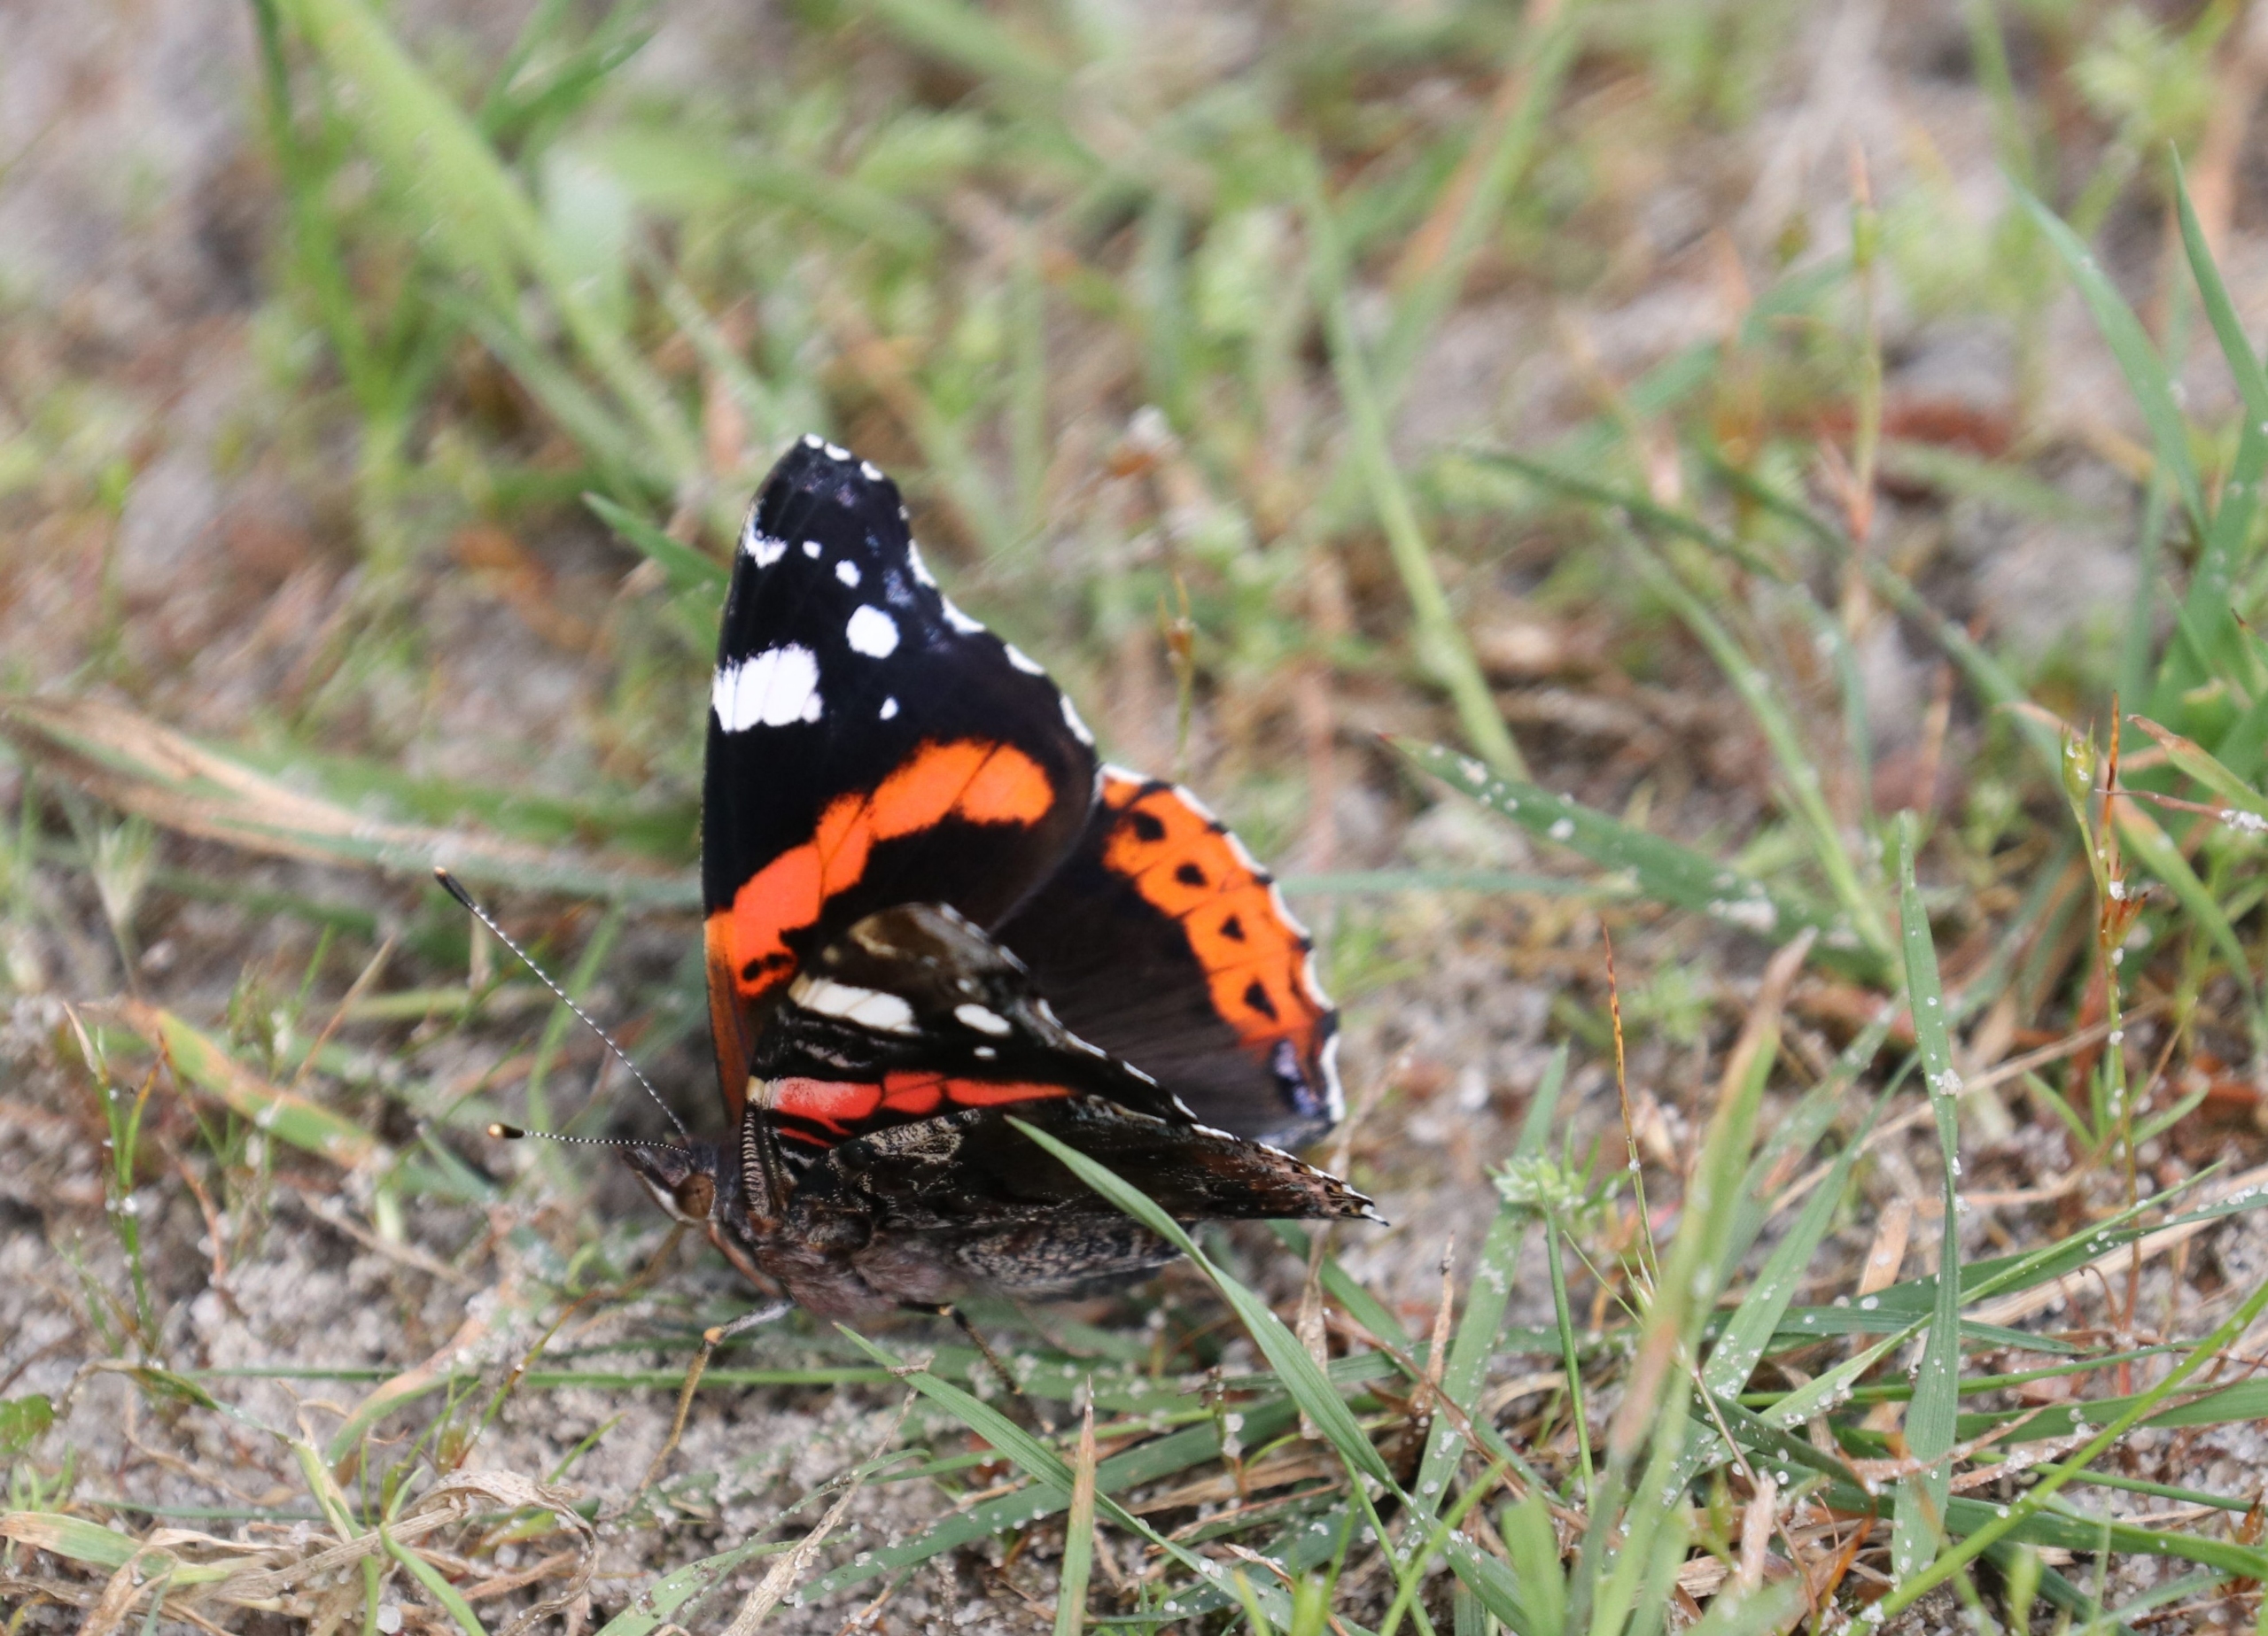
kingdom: Animalia
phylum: Arthropoda
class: Insecta
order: Lepidoptera
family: Nymphalidae
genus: Vanessa
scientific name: Vanessa atalanta
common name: Admiral
